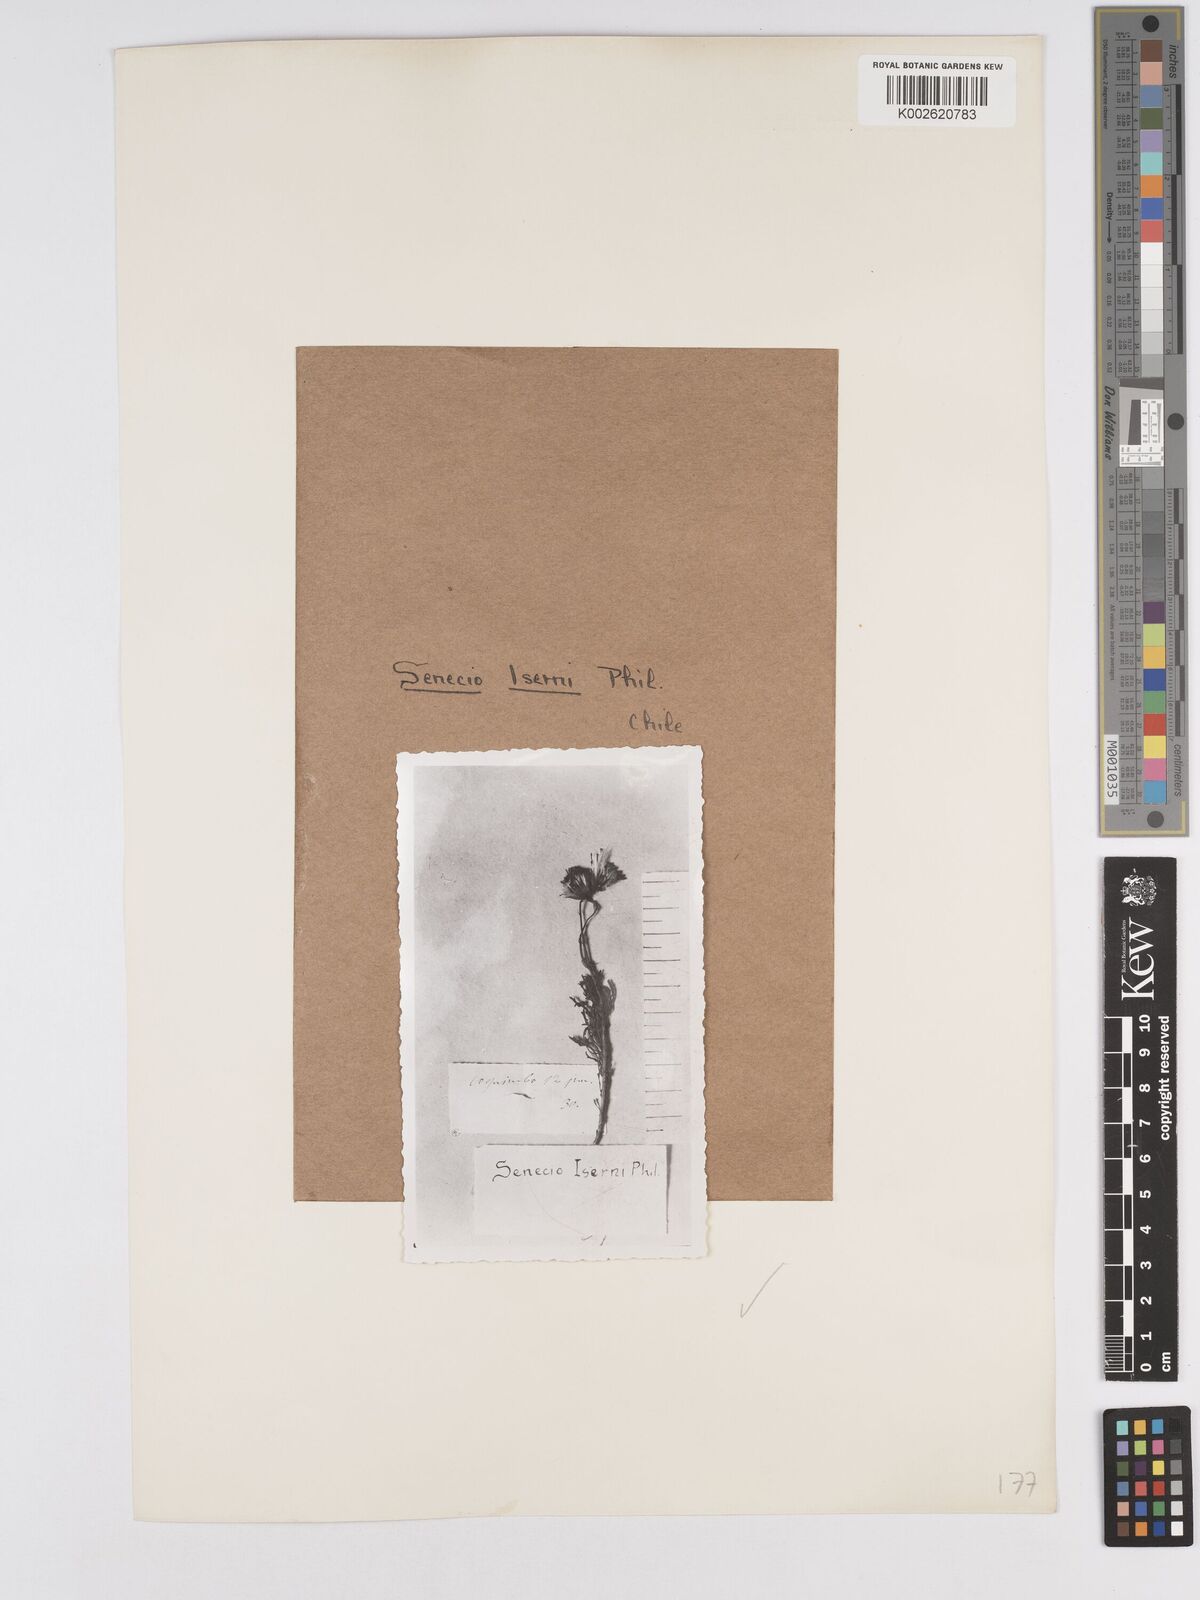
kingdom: Plantae
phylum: Tracheophyta
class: Magnoliopsida
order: Asterales
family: Asteraceae
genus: Senecio
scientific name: Senecio isernii
